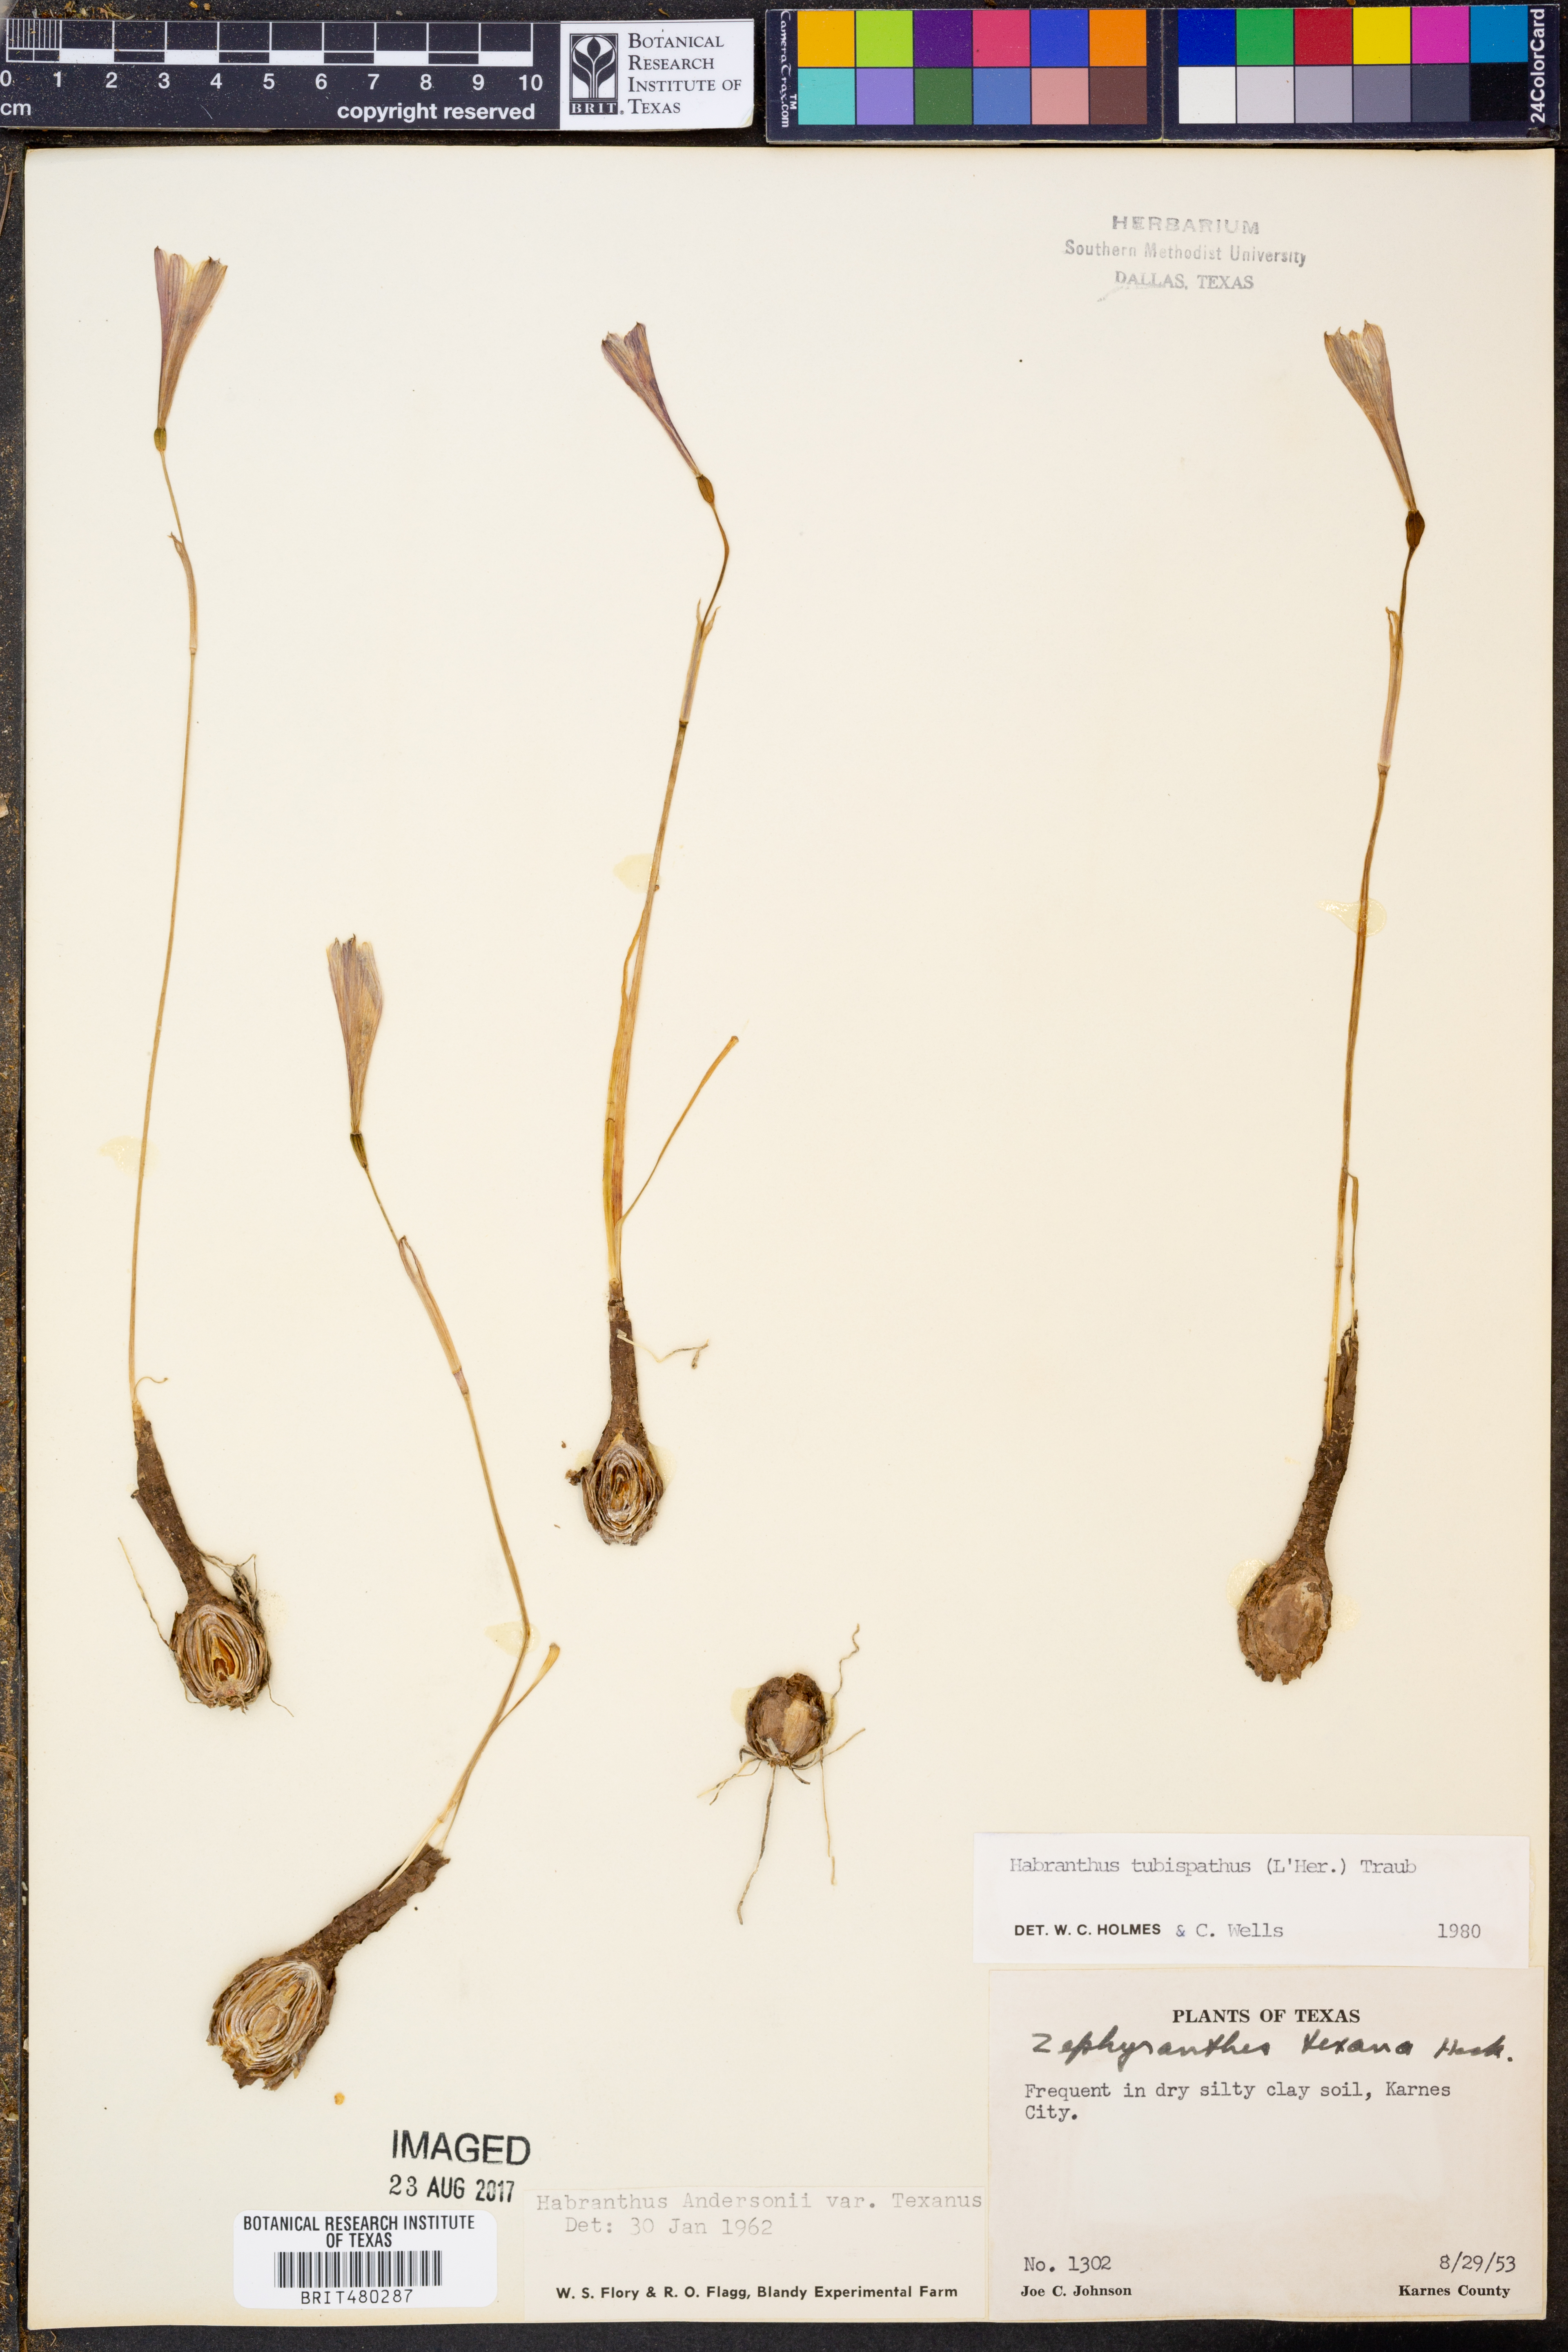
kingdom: Plantae
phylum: Tracheophyta
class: Liliopsida
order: Asparagales
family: Amaryllidaceae
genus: Zephyranthes
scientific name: Zephyranthes tubispatha
